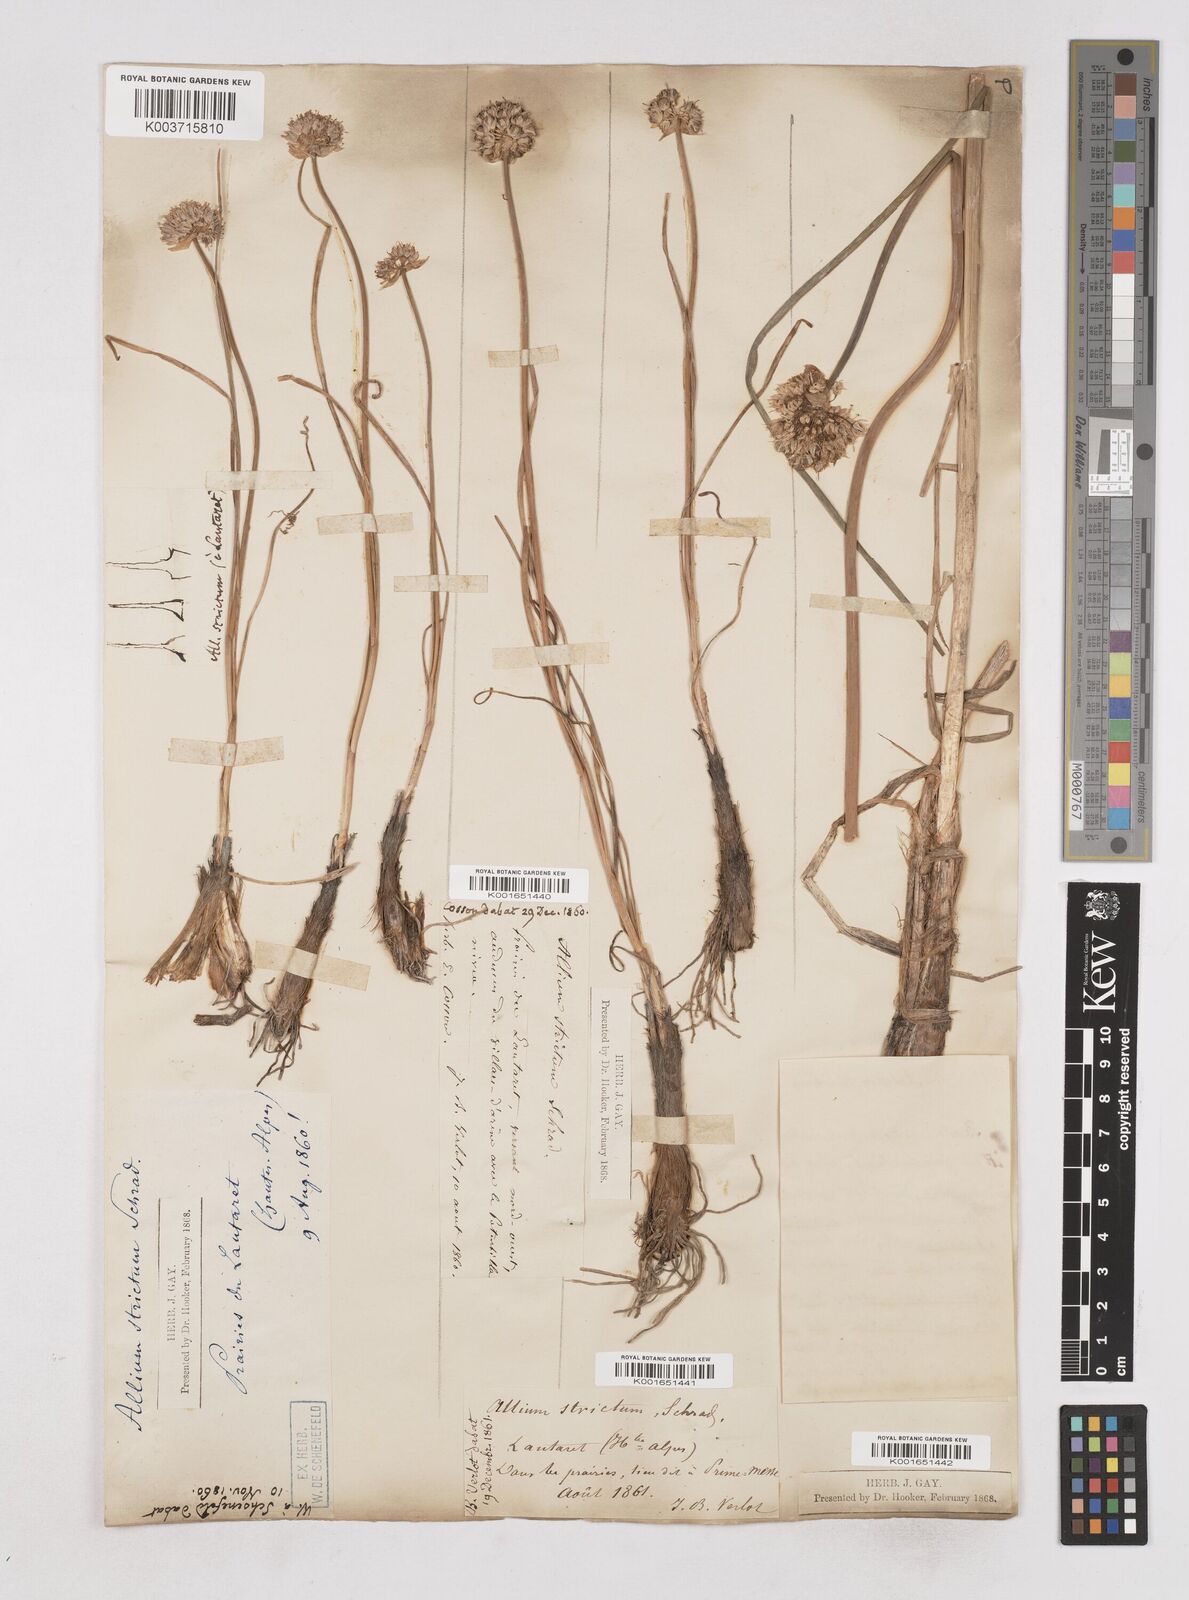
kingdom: Plantae
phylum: Tracheophyta
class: Liliopsida
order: Asparagales
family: Amaryllidaceae
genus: Allium
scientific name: Allium strictum
